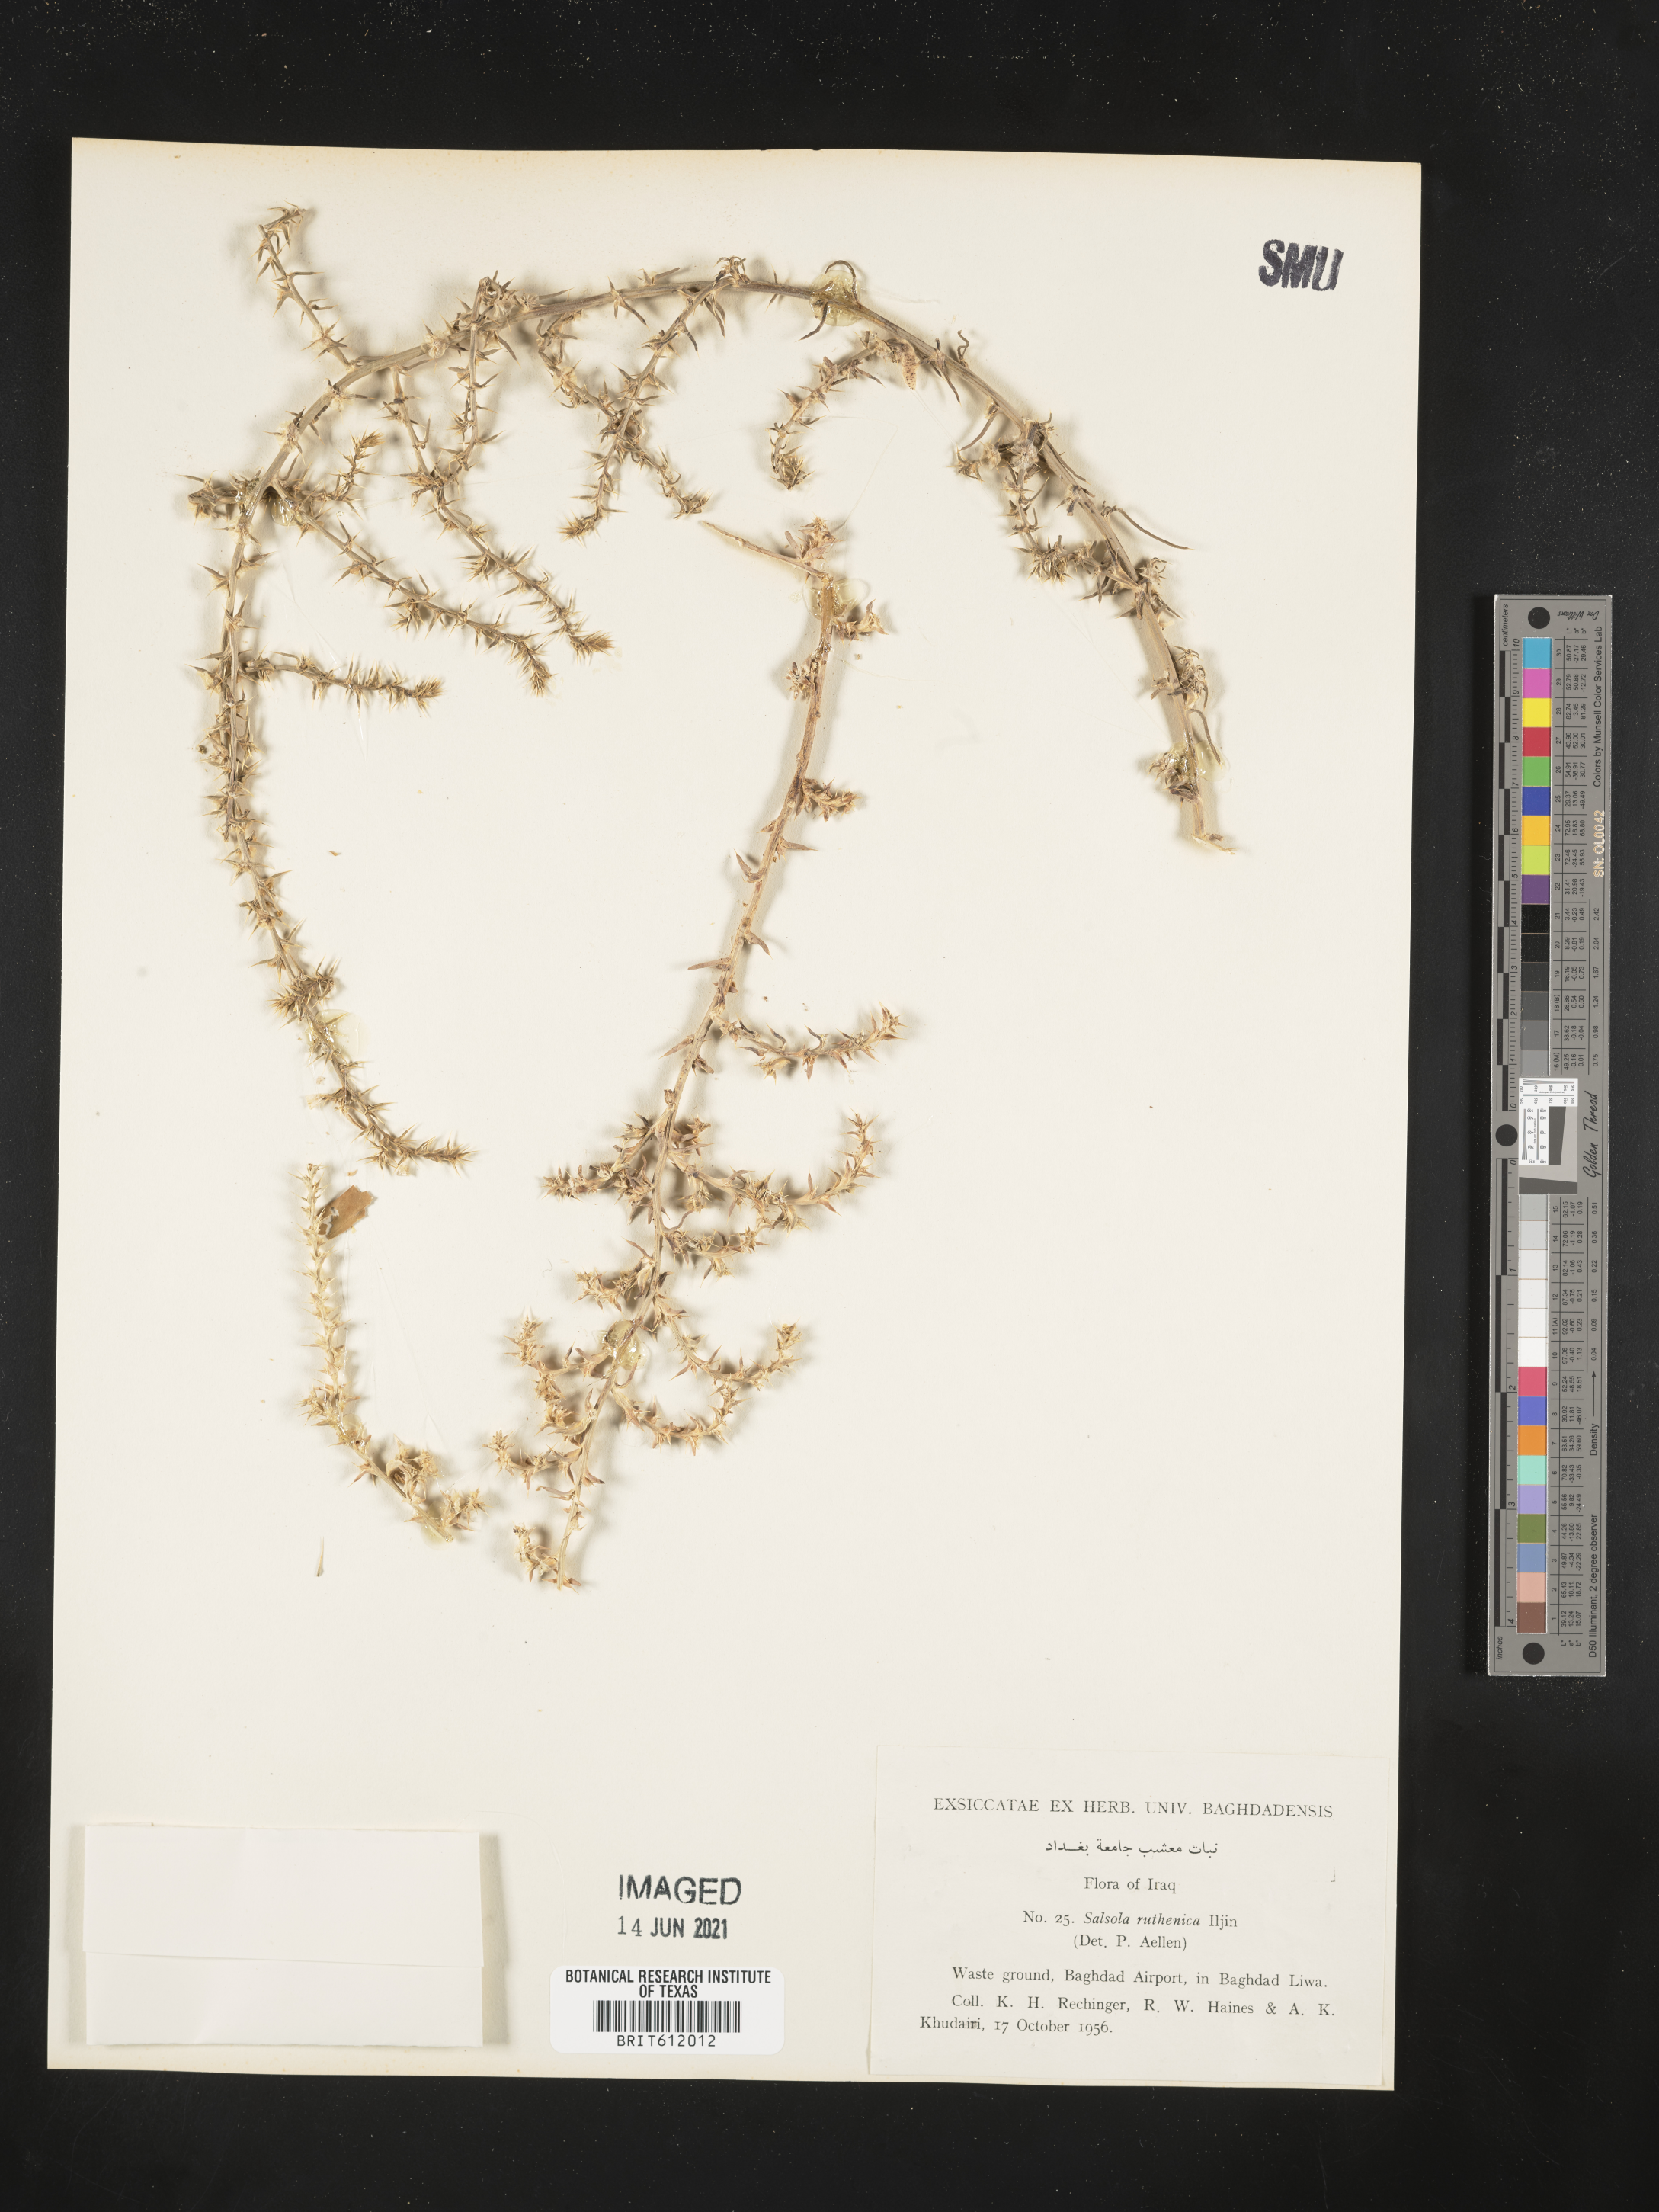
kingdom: Plantae
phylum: Tracheophyta
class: Magnoliopsida
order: Caryophyllales
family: Amaranthaceae
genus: Salsola
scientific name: Salsola tragus
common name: Prickly russian thistle
